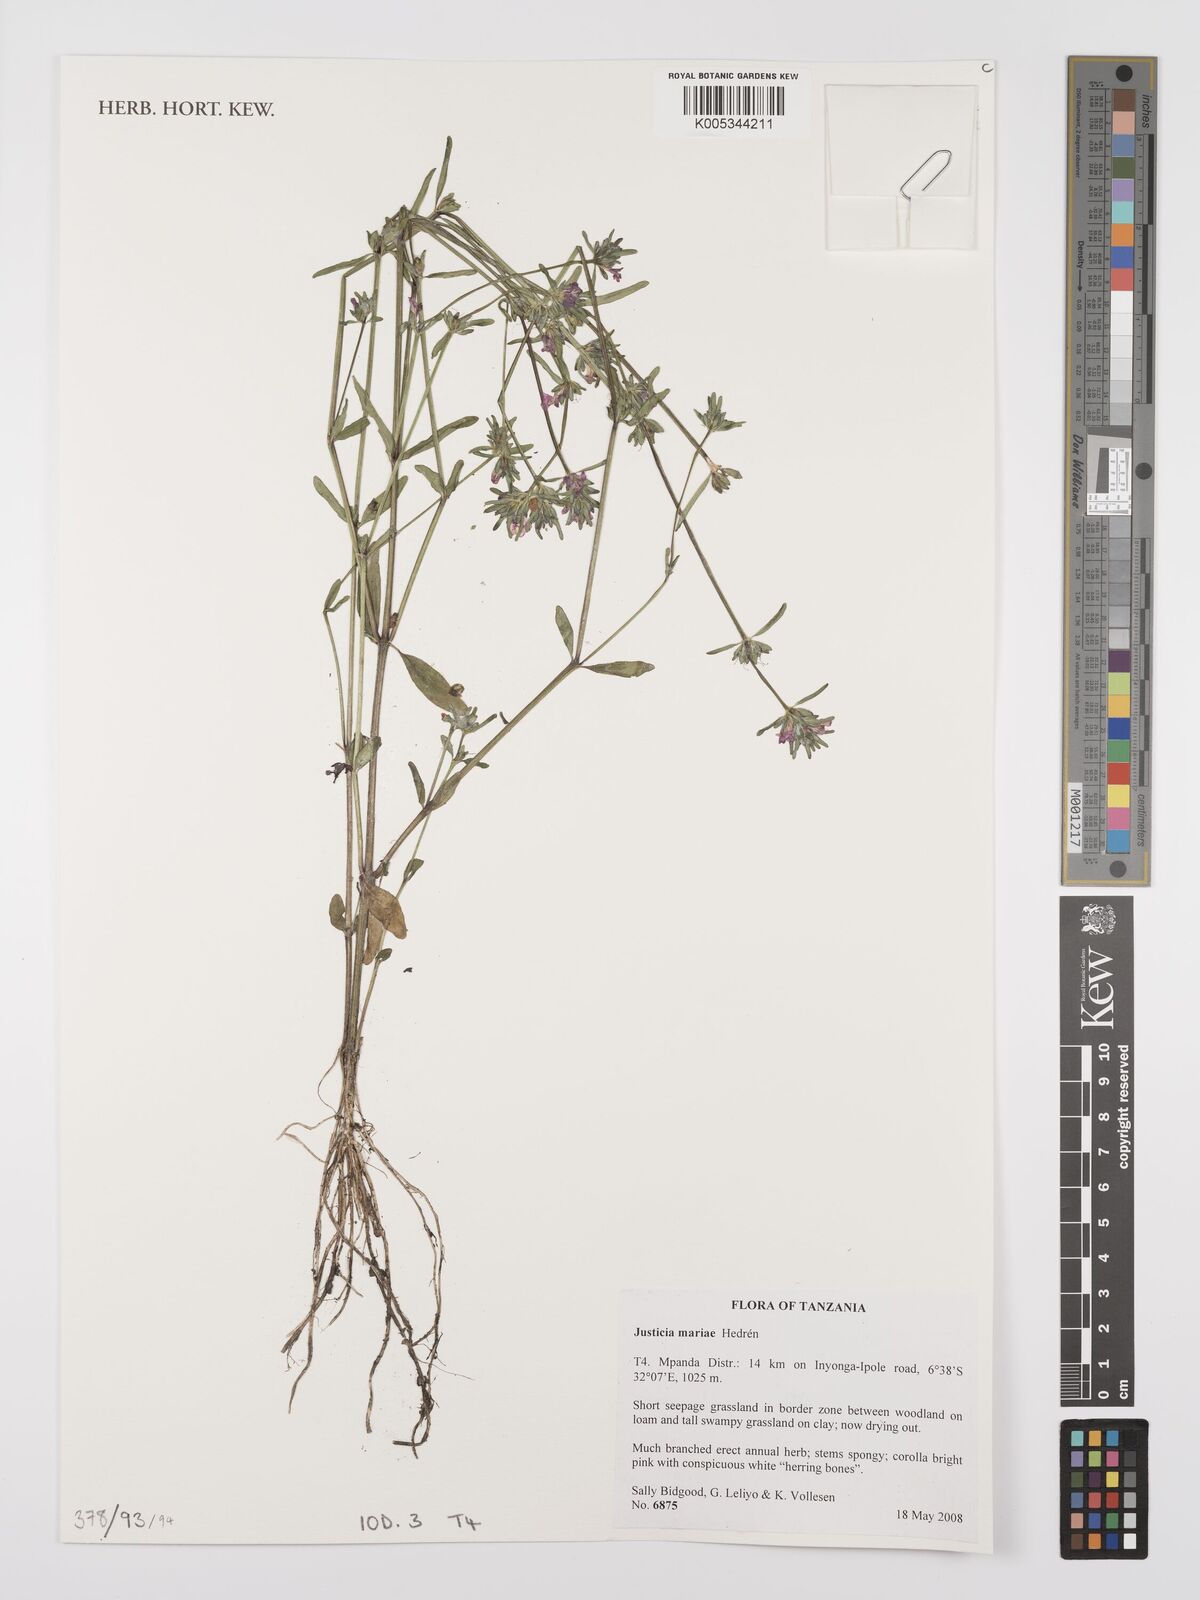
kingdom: Plantae
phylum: Tracheophyta
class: Magnoliopsida
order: Lamiales
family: Acanthaceae
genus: Justicia
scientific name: Justicia mariae
